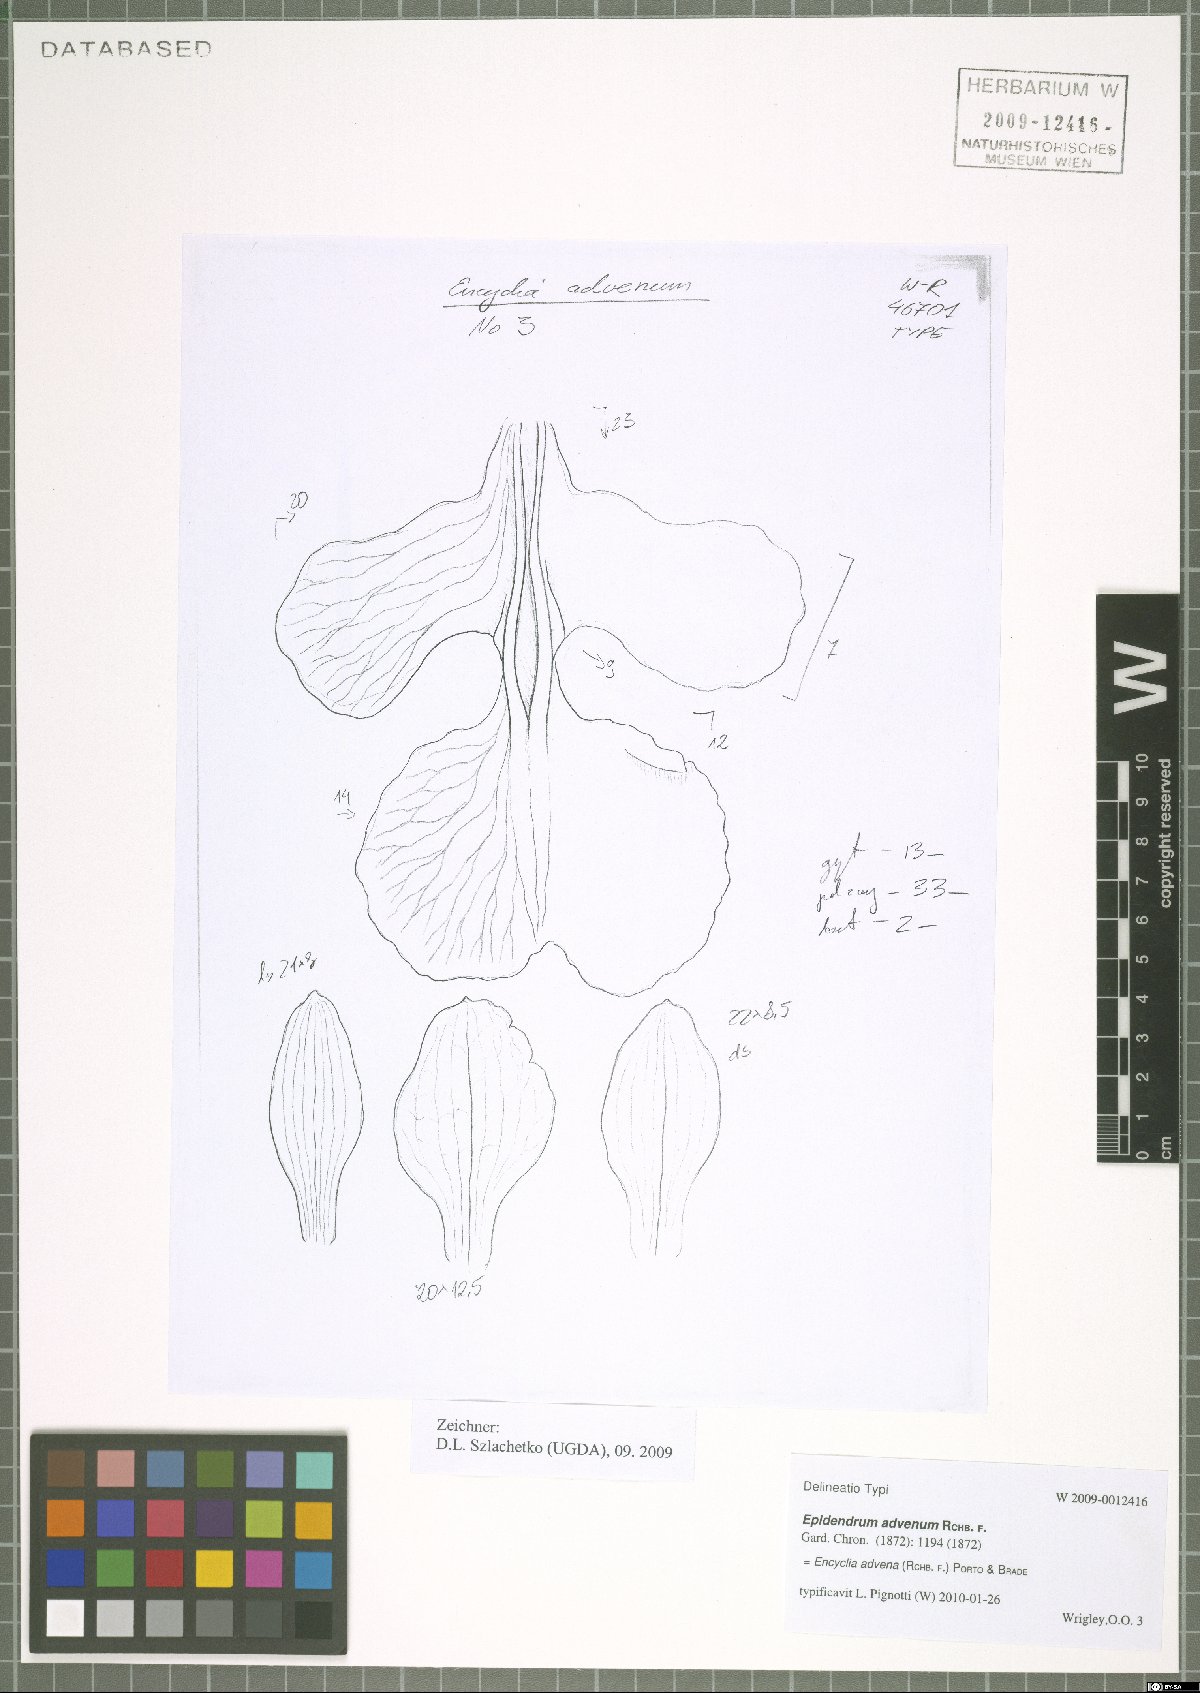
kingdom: Plantae
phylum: Tracheophyta
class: Liliopsida
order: Asparagales
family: Orchidaceae
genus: Encyclia
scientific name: Encyclia advena
